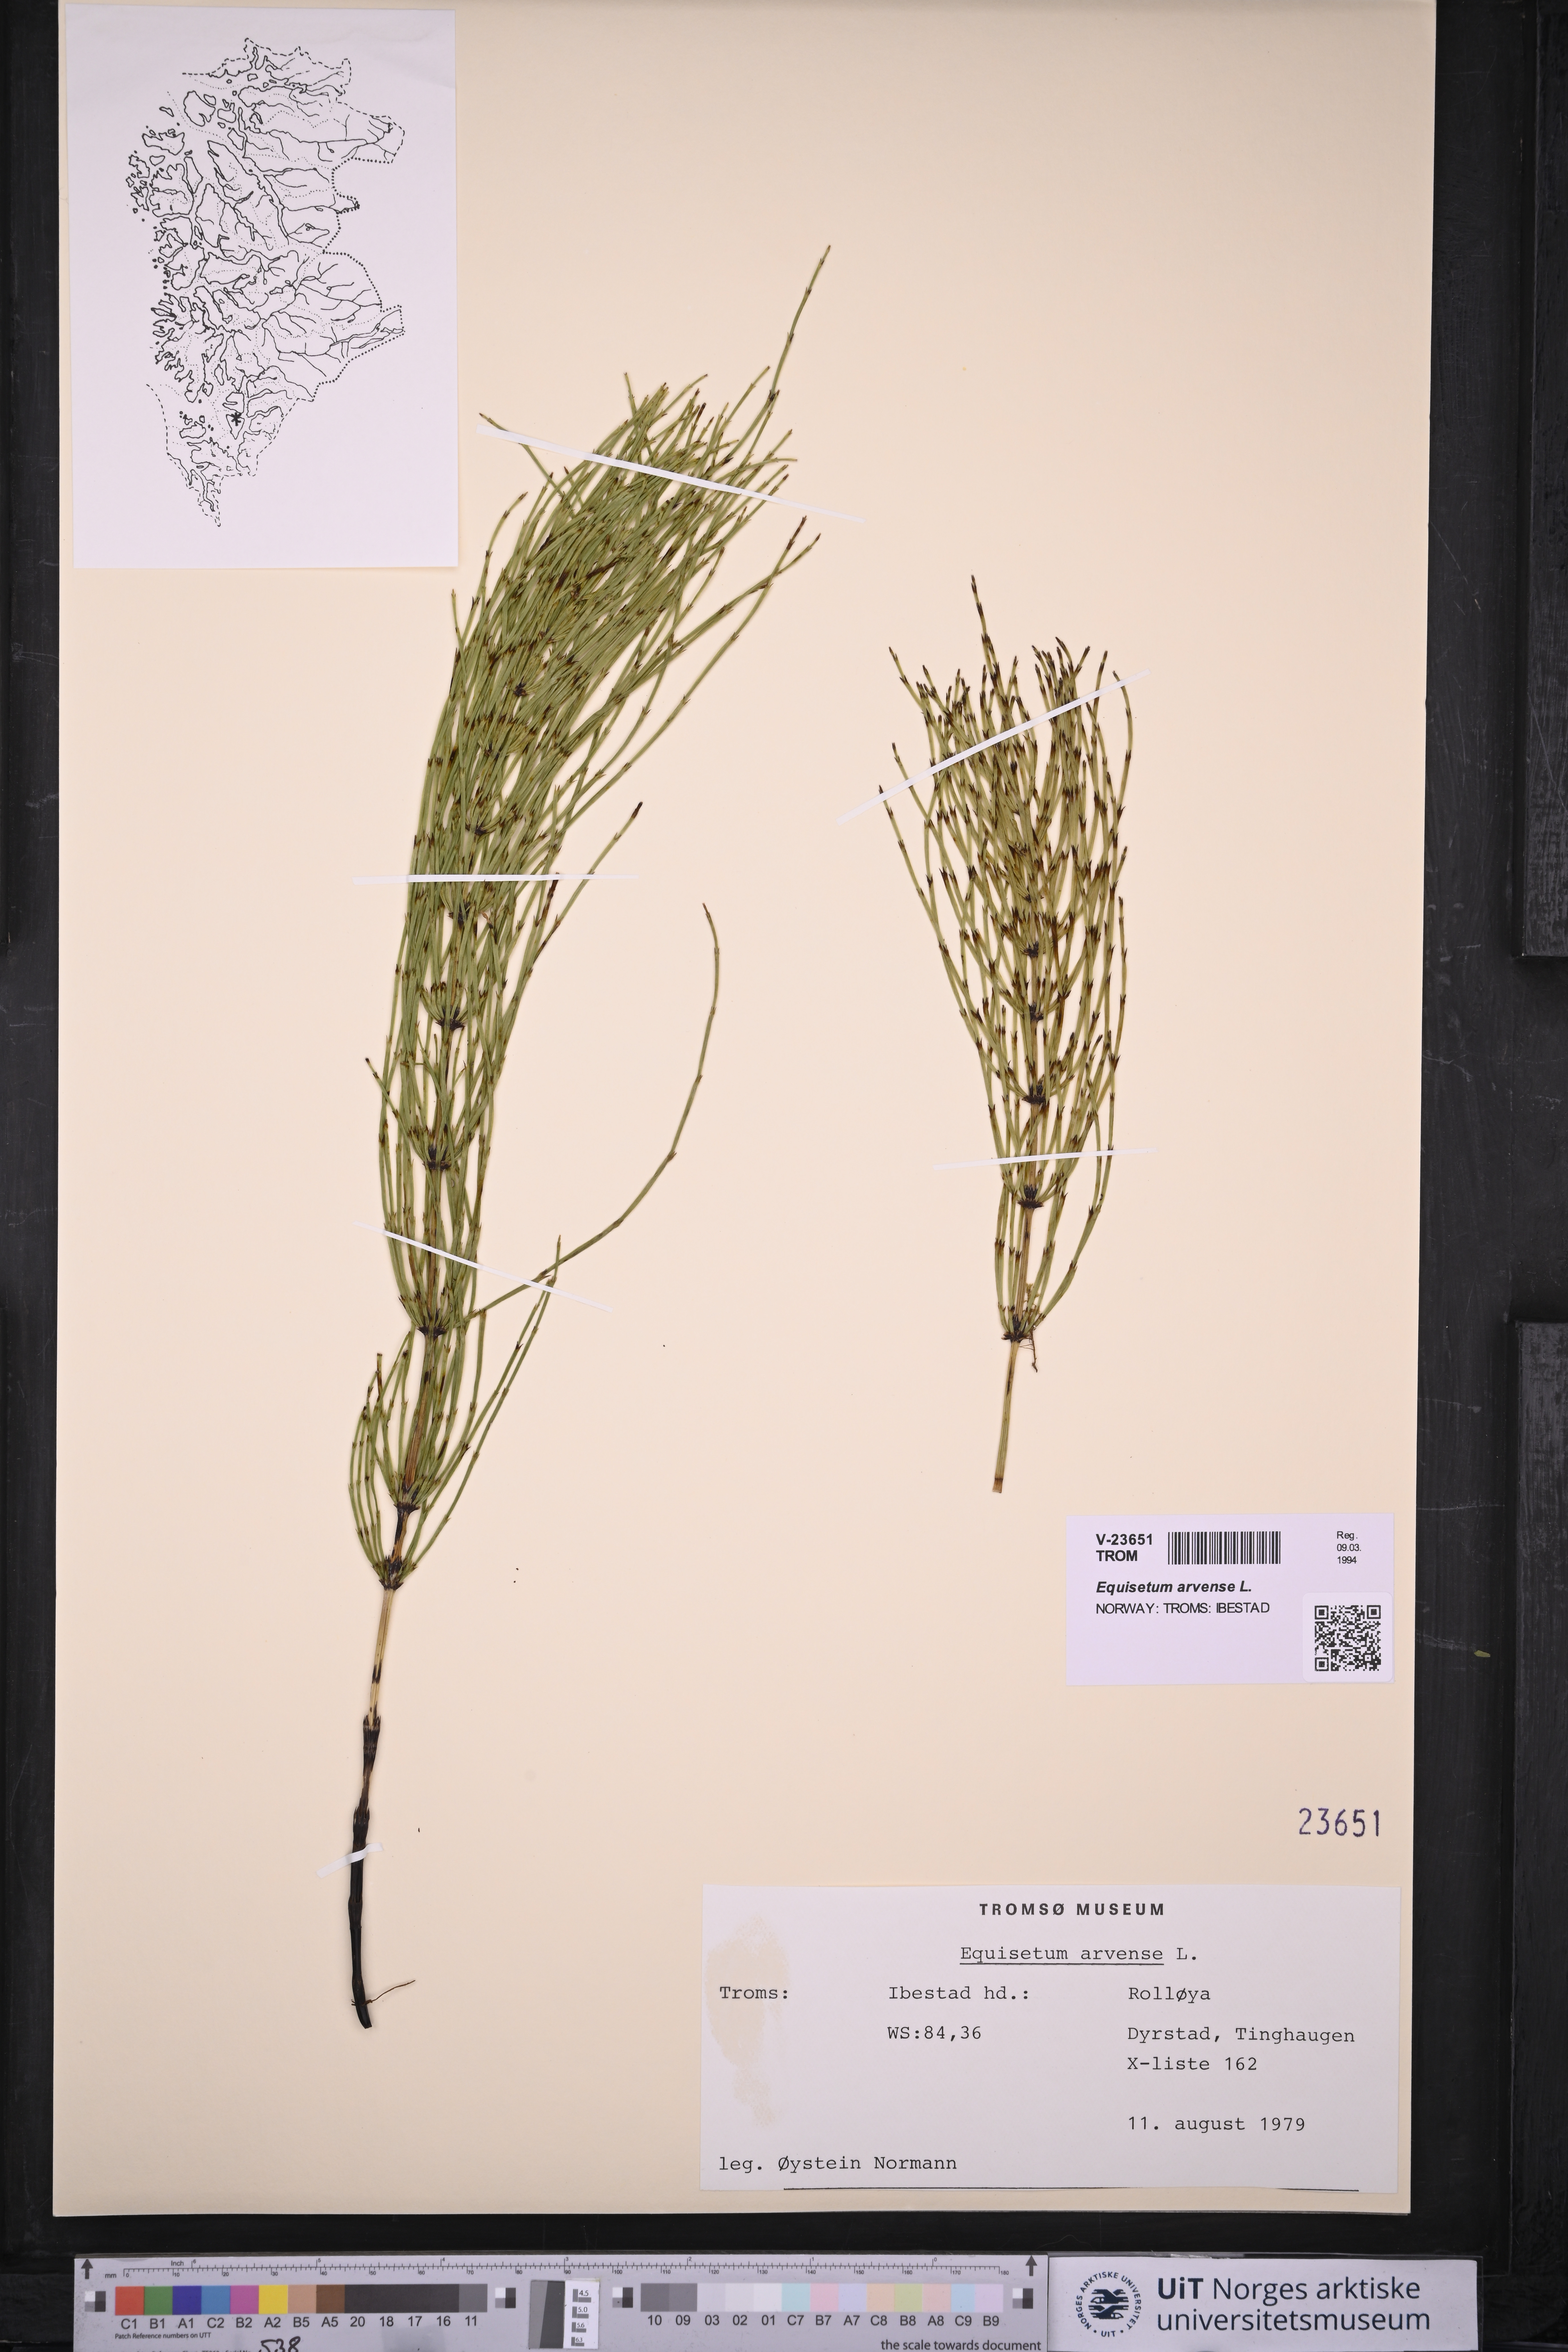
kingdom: Plantae
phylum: Tracheophyta
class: Polypodiopsida
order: Equisetales
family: Equisetaceae
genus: Equisetum
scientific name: Equisetum arvense
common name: Field horsetail
